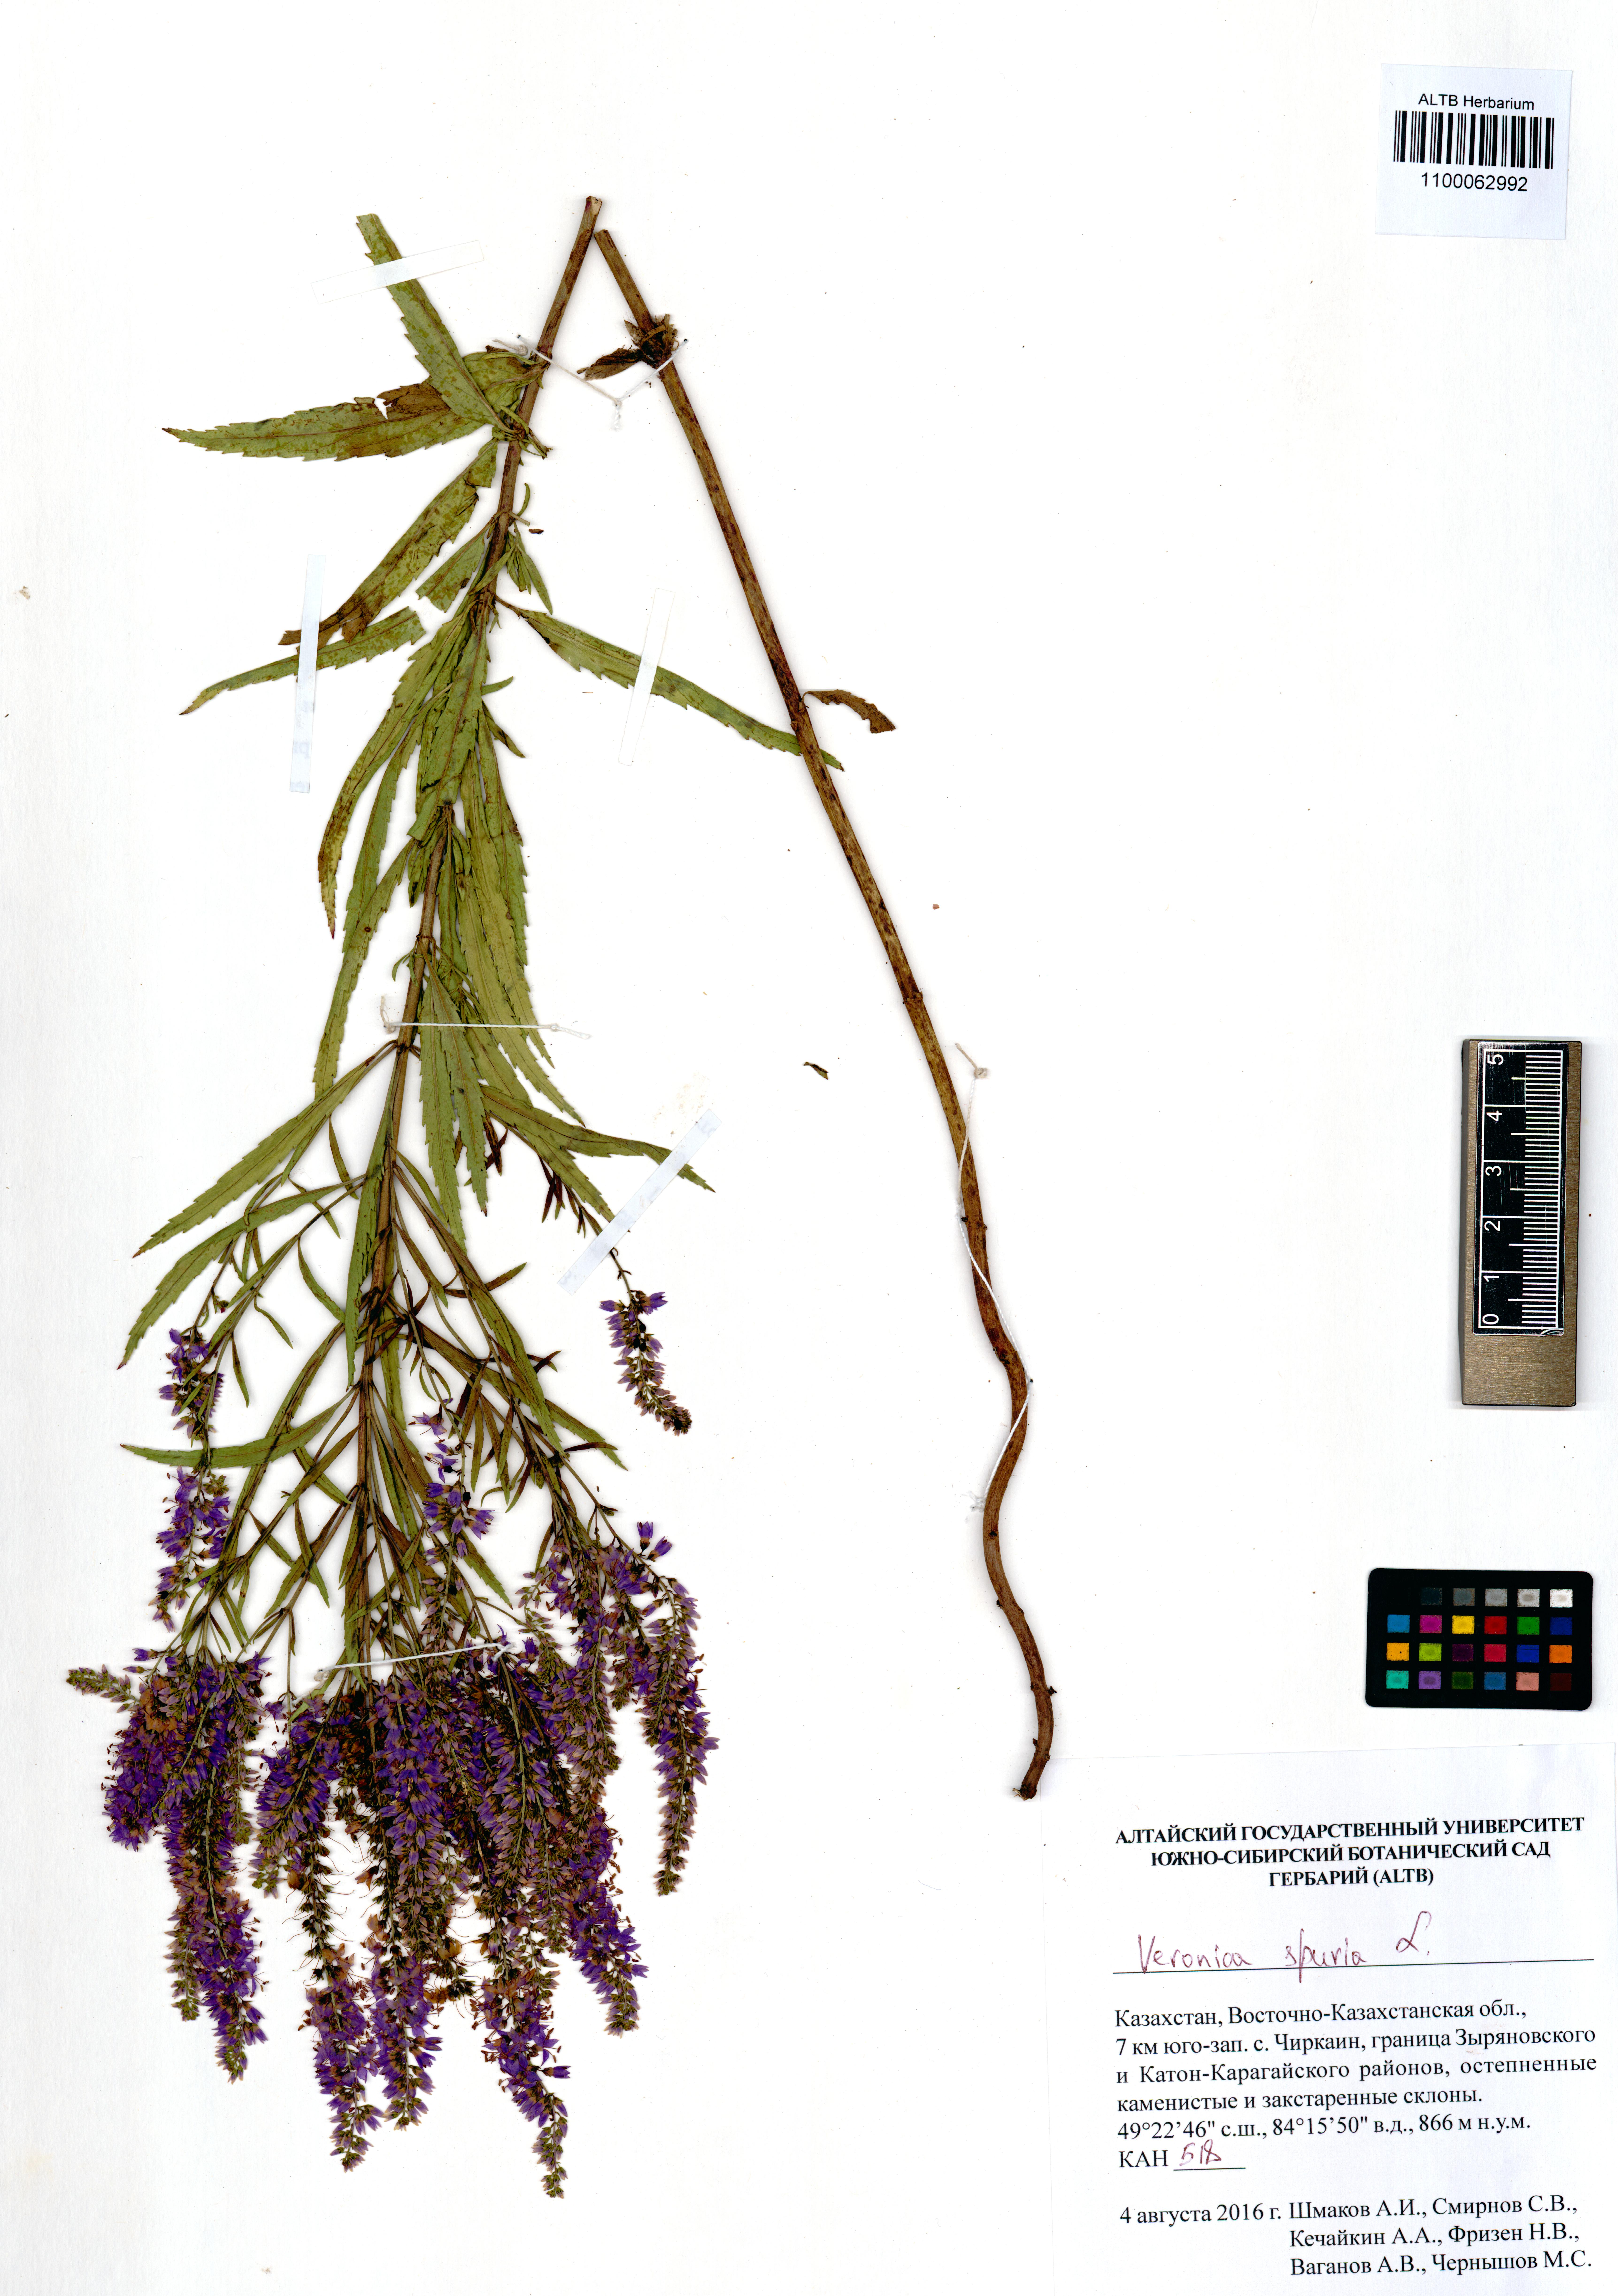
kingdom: Plantae
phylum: Tracheophyta
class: Magnoliopsida
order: Lamiales
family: Plantaginaceae
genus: Veronica
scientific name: Veronica spuria
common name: Bastard speedwell
